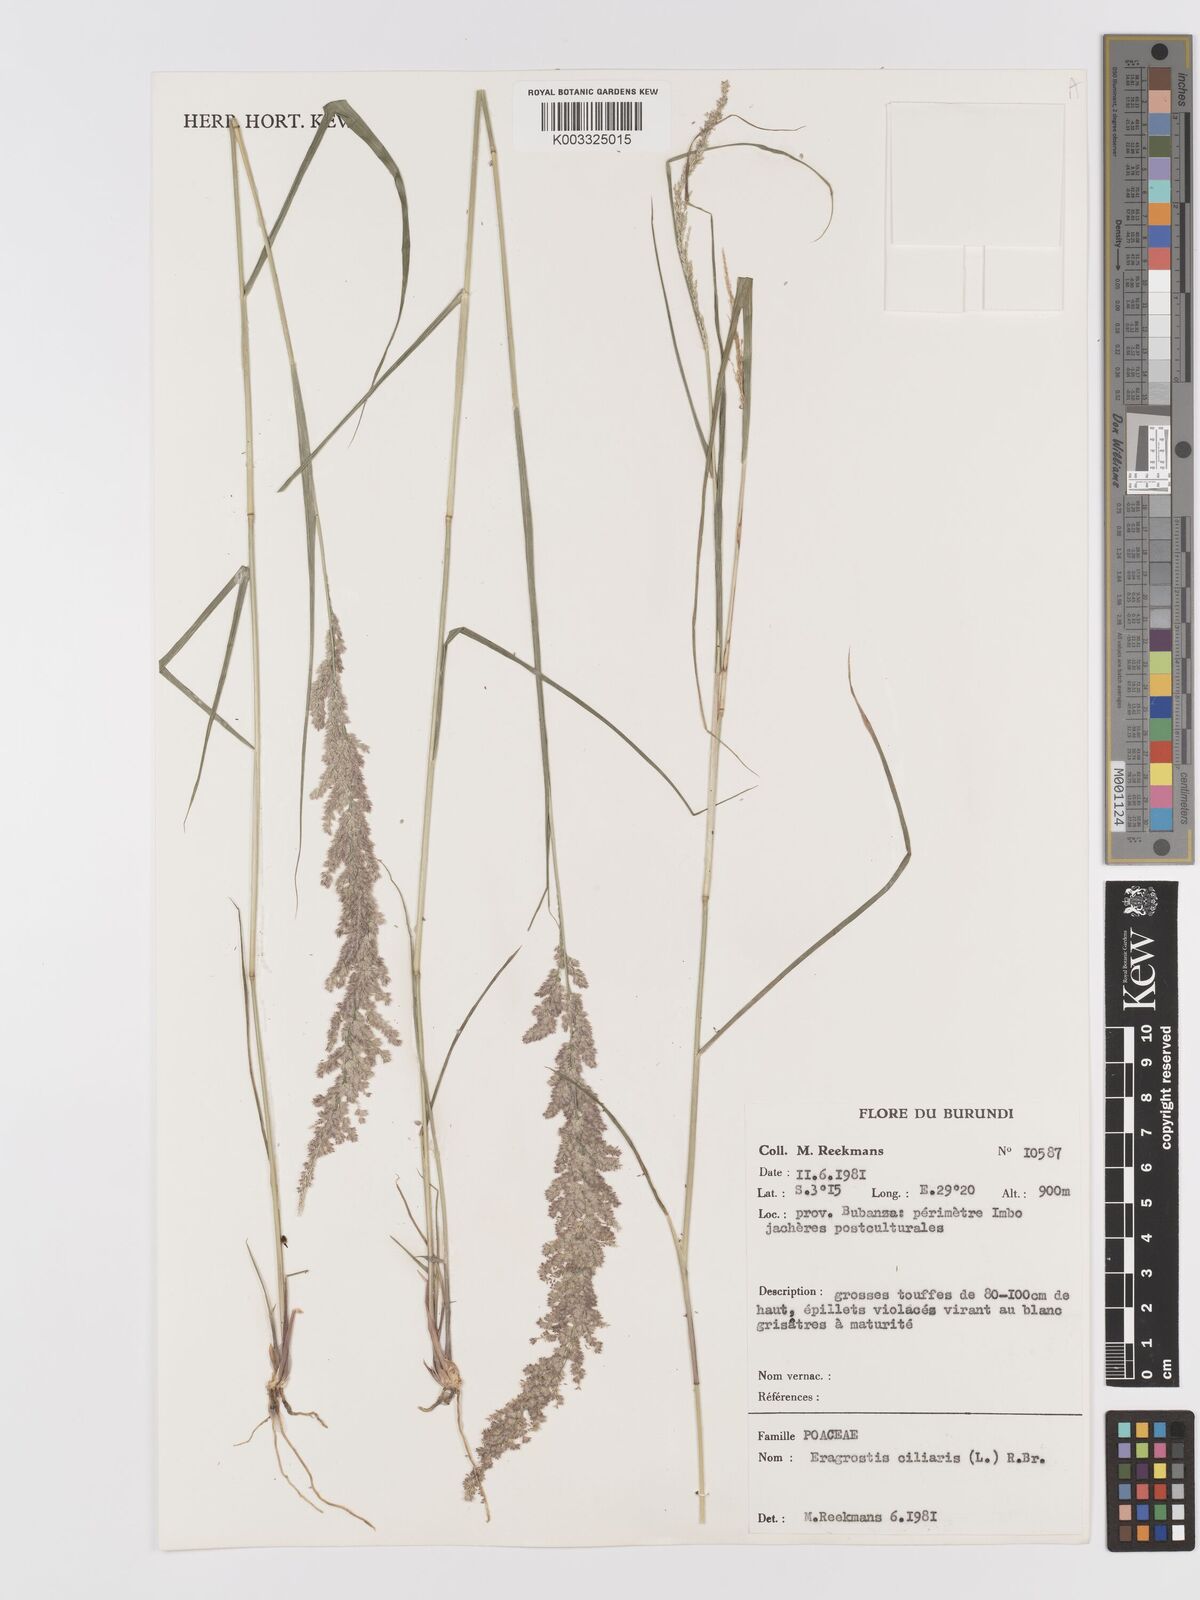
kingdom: Plantae
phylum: Tracheophyta
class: Liliopsida
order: Poales
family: Poaceae
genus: Eragrostis
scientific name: Eragrostis ciliaris
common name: Gophertail lovegrass
